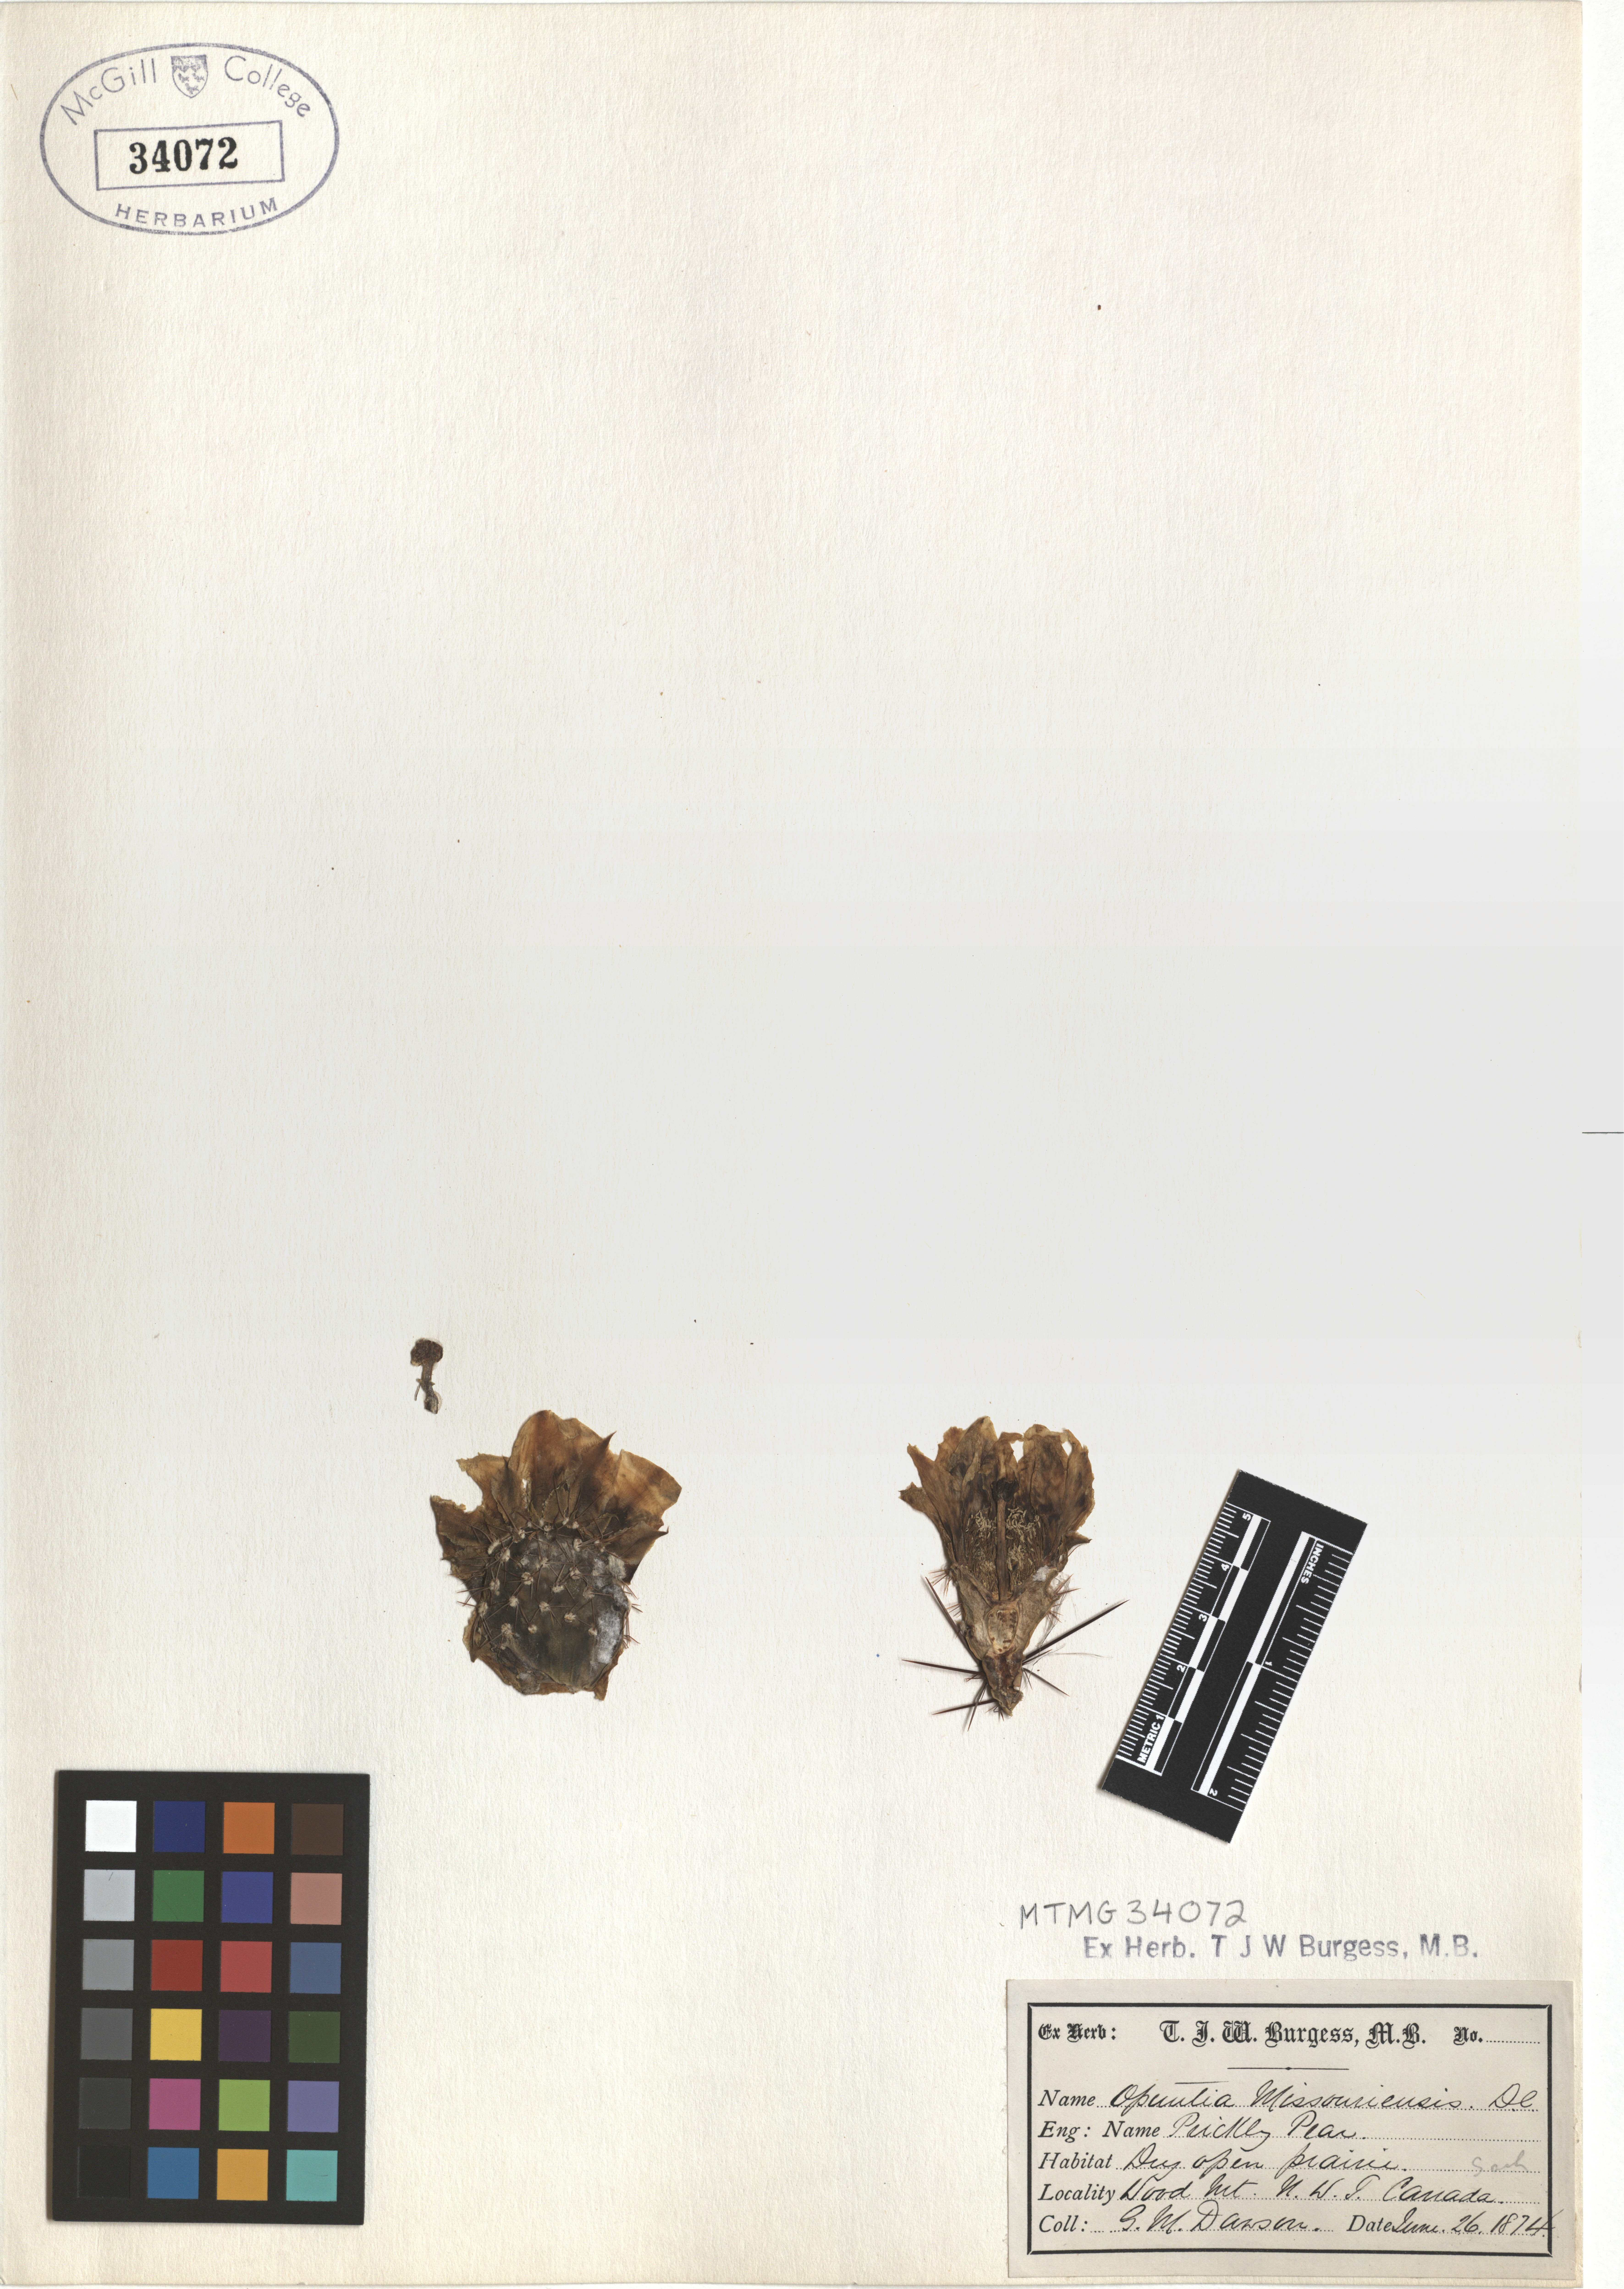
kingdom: Plantae
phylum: Tracheophyta
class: Magnoliopsida
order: Caryophyllales
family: Cactaceae
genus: Opuntia
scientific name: Opuntia polyacantha
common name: Plains prickly-pear
